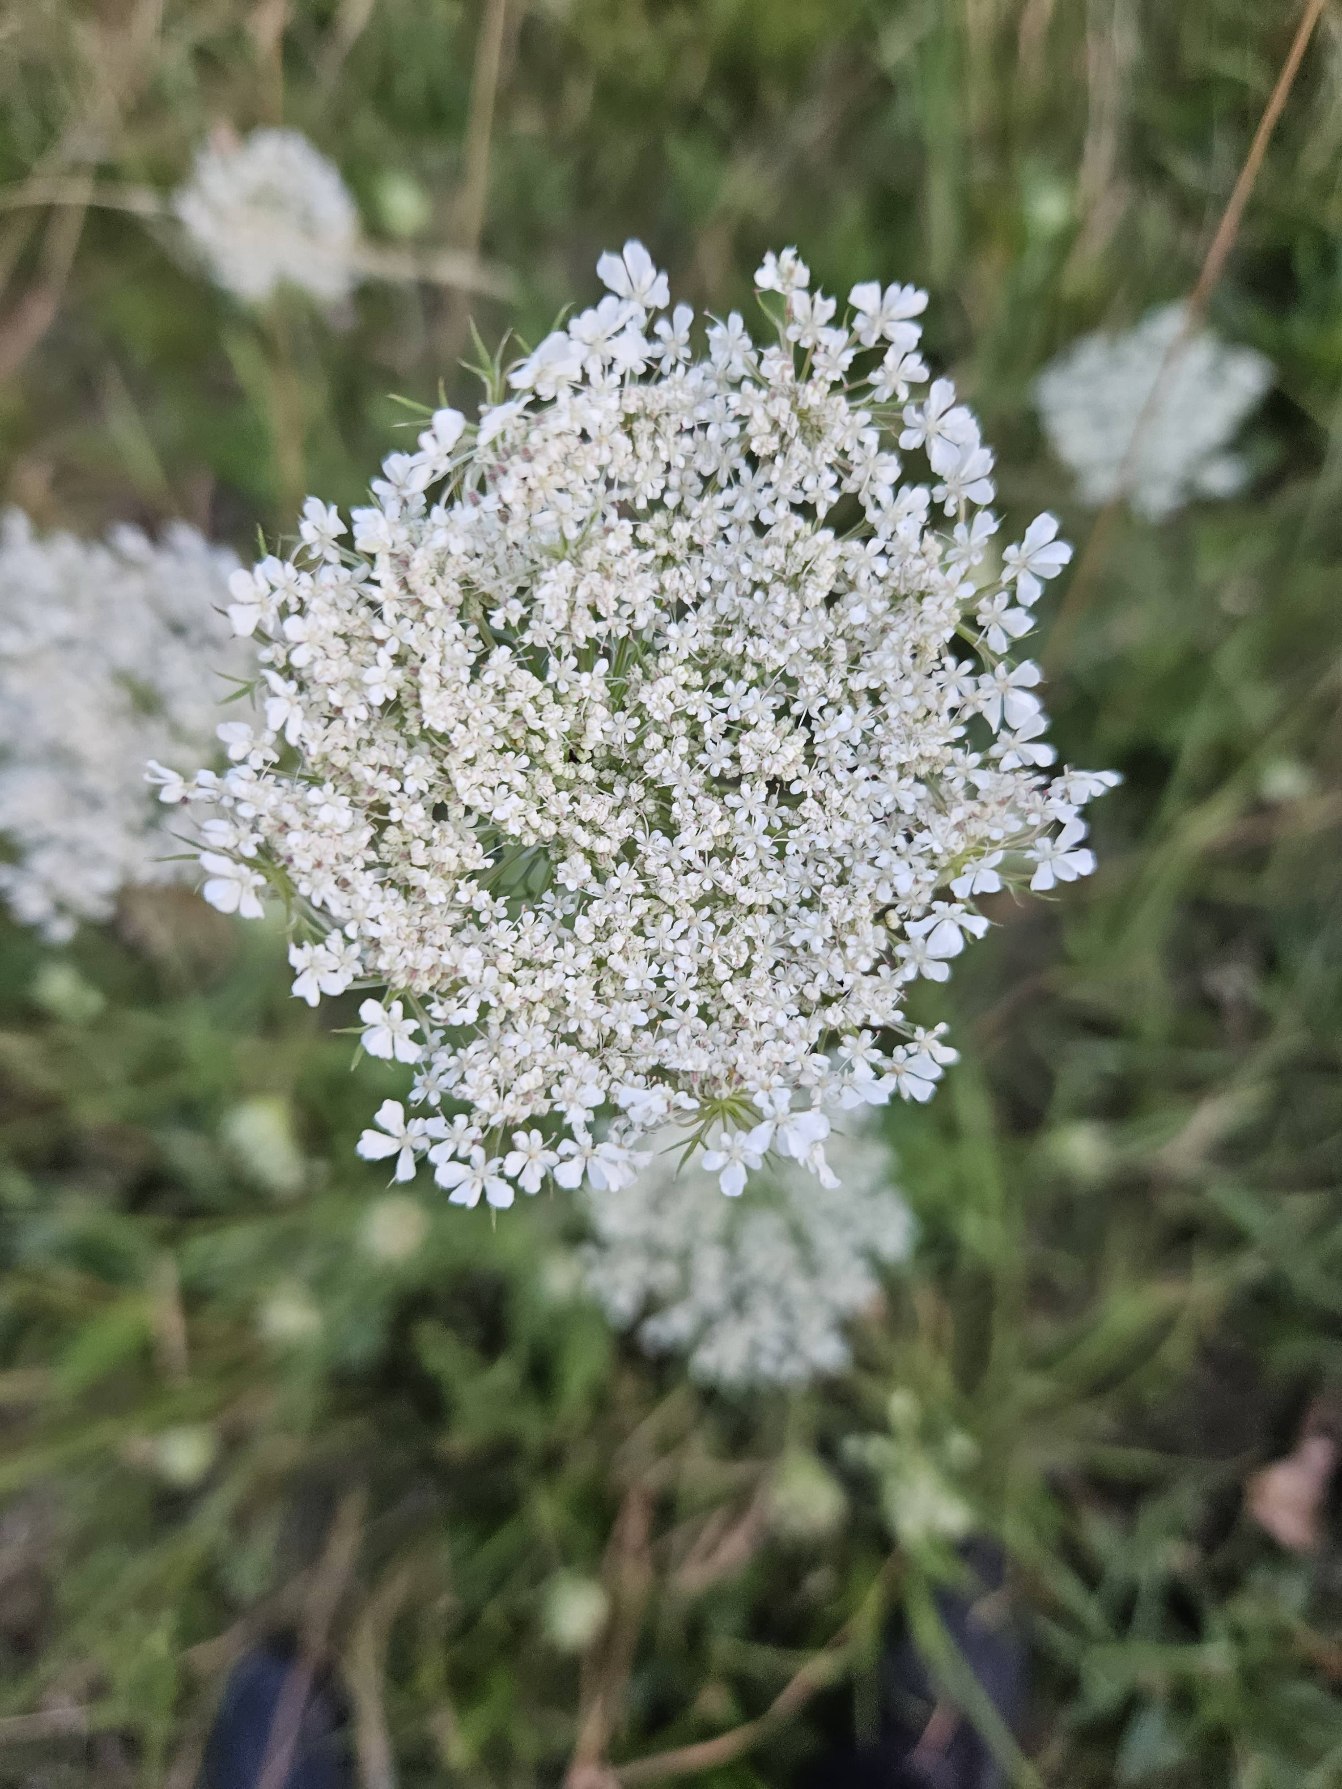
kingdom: Plantae
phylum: Tracheophyta
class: Magnoliopsida
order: Apiales
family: Apiaceae
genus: Daucus
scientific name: Daucus carota
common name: Gulerod
